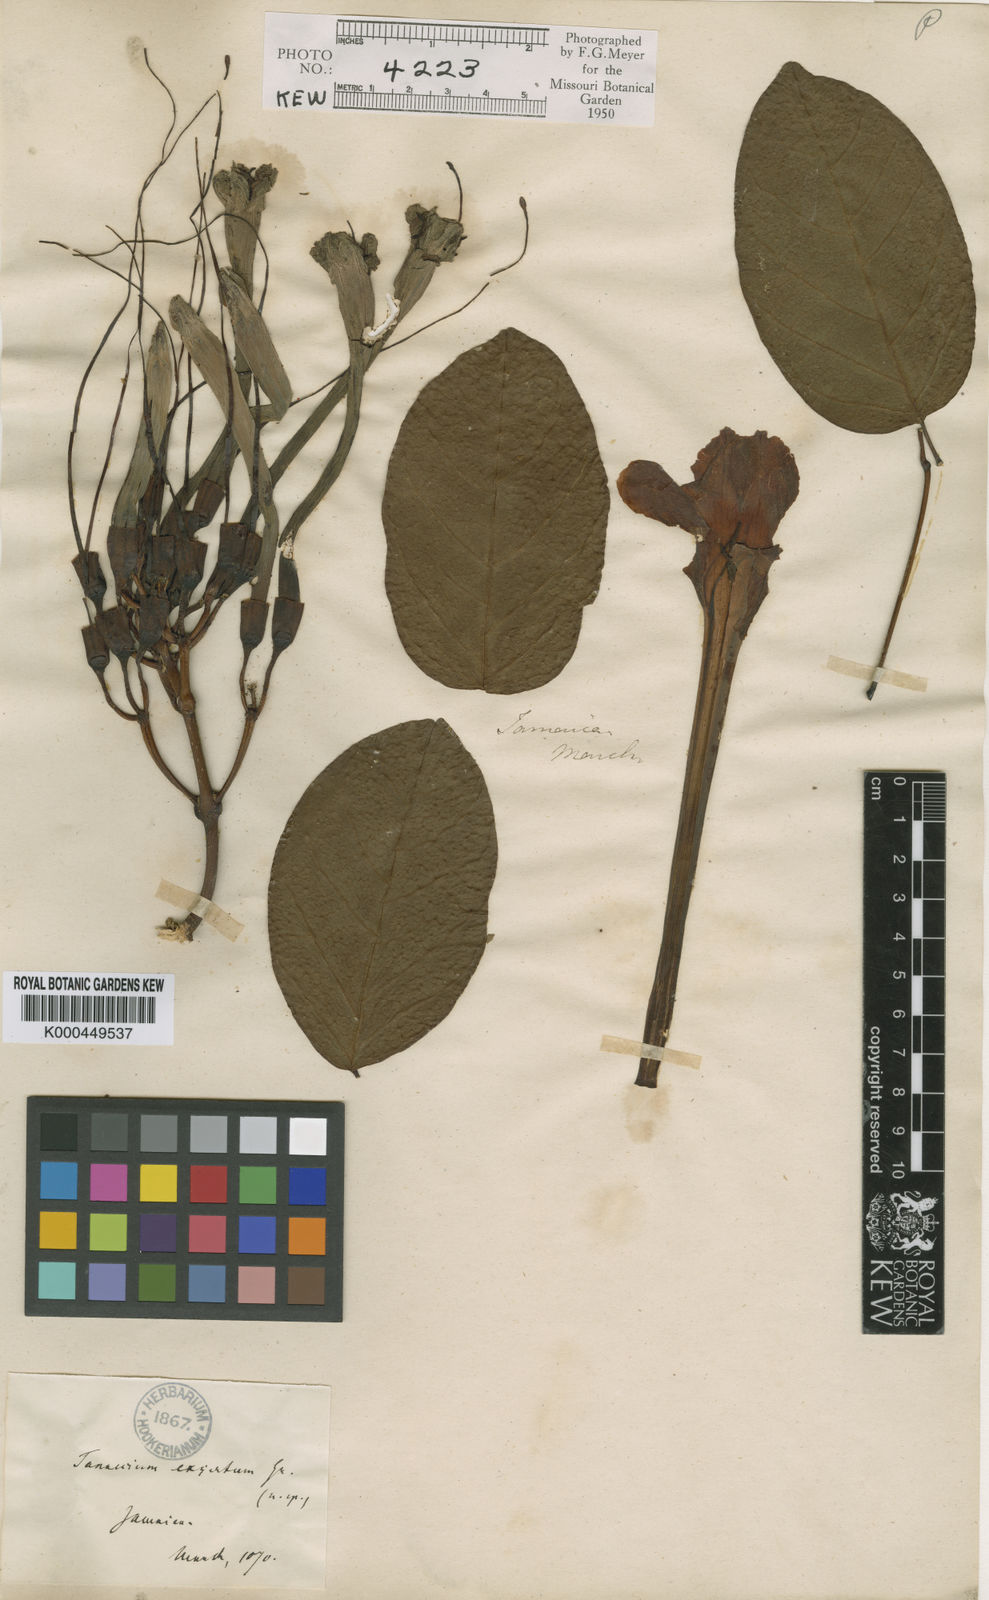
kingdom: Plantae
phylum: Tracheophyta
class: Magnoliopsida
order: Lamiales
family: Bignoniaceae
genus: Tanaecium
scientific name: Tanaecium jaroba
